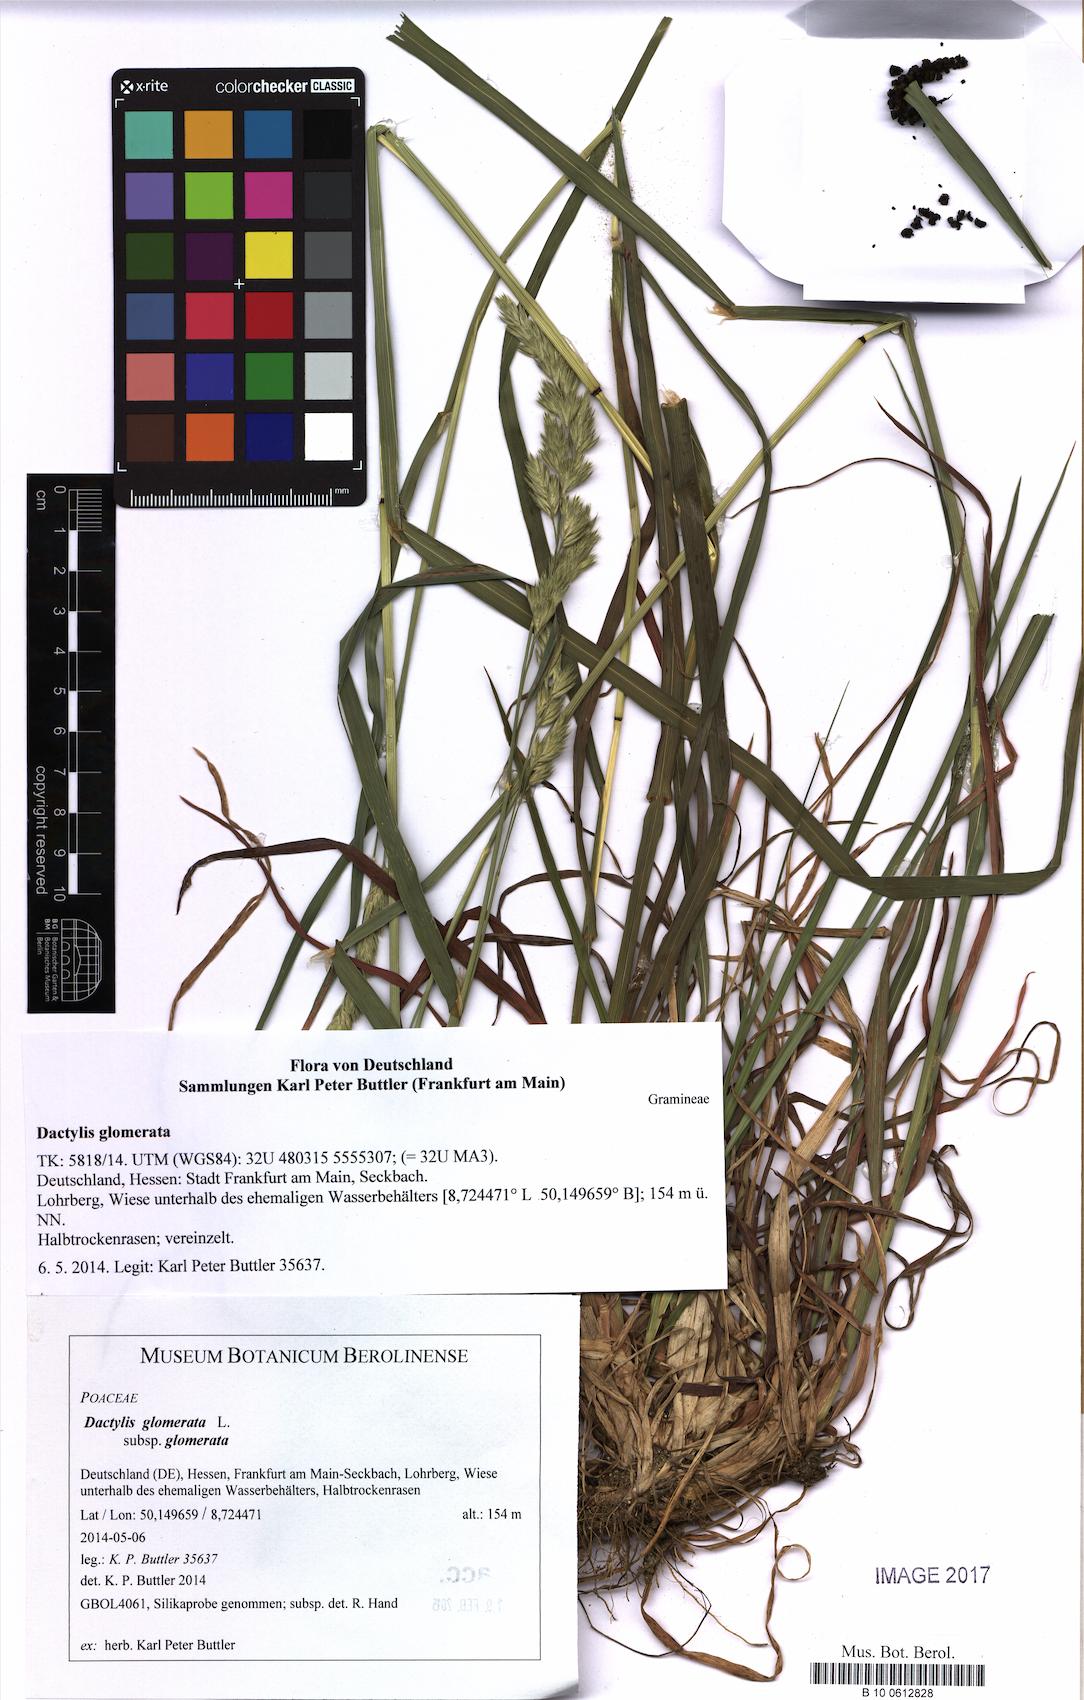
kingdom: Plantae
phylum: Tracheophyta
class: Liliopsida
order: Poales
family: Poaceae
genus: Dactylis
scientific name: Dactylis glomerata
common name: Orchardgrass
